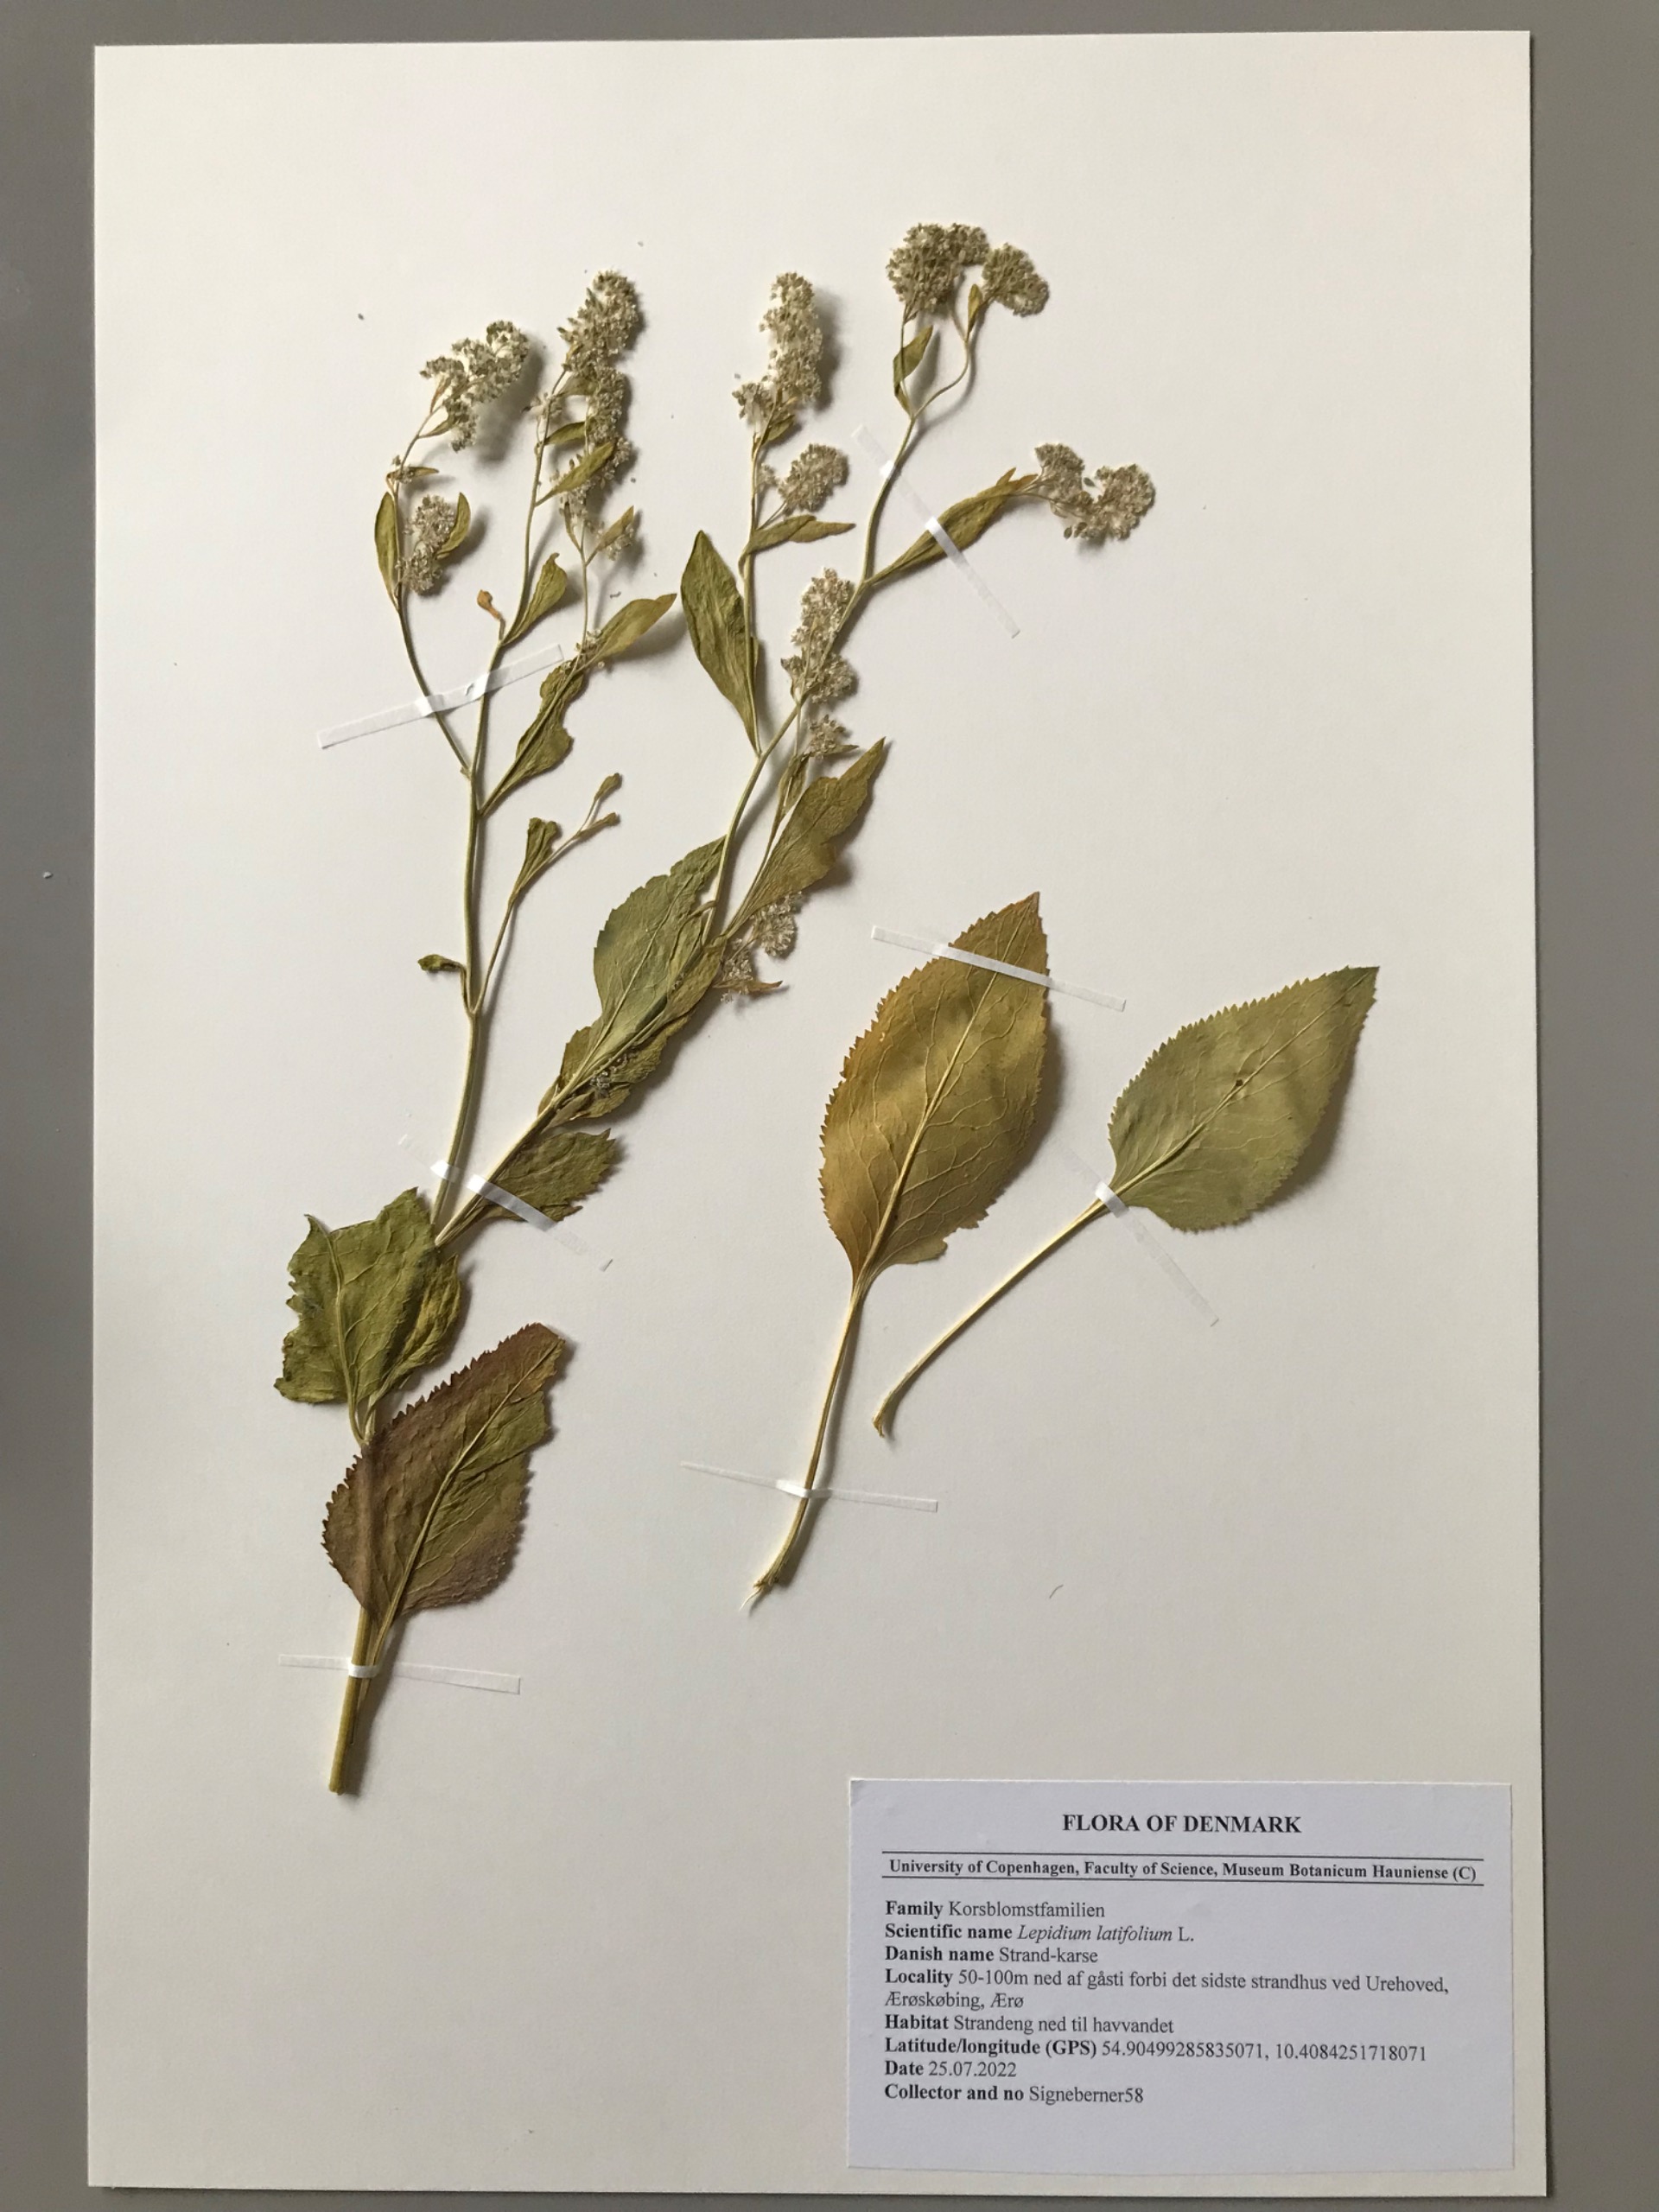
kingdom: Plantae
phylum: Tracheophyta
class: Magnoliopsida
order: Brassicales
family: Brassicaceae
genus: Lepidium
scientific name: Lepidium latifolium
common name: Strand-karse
